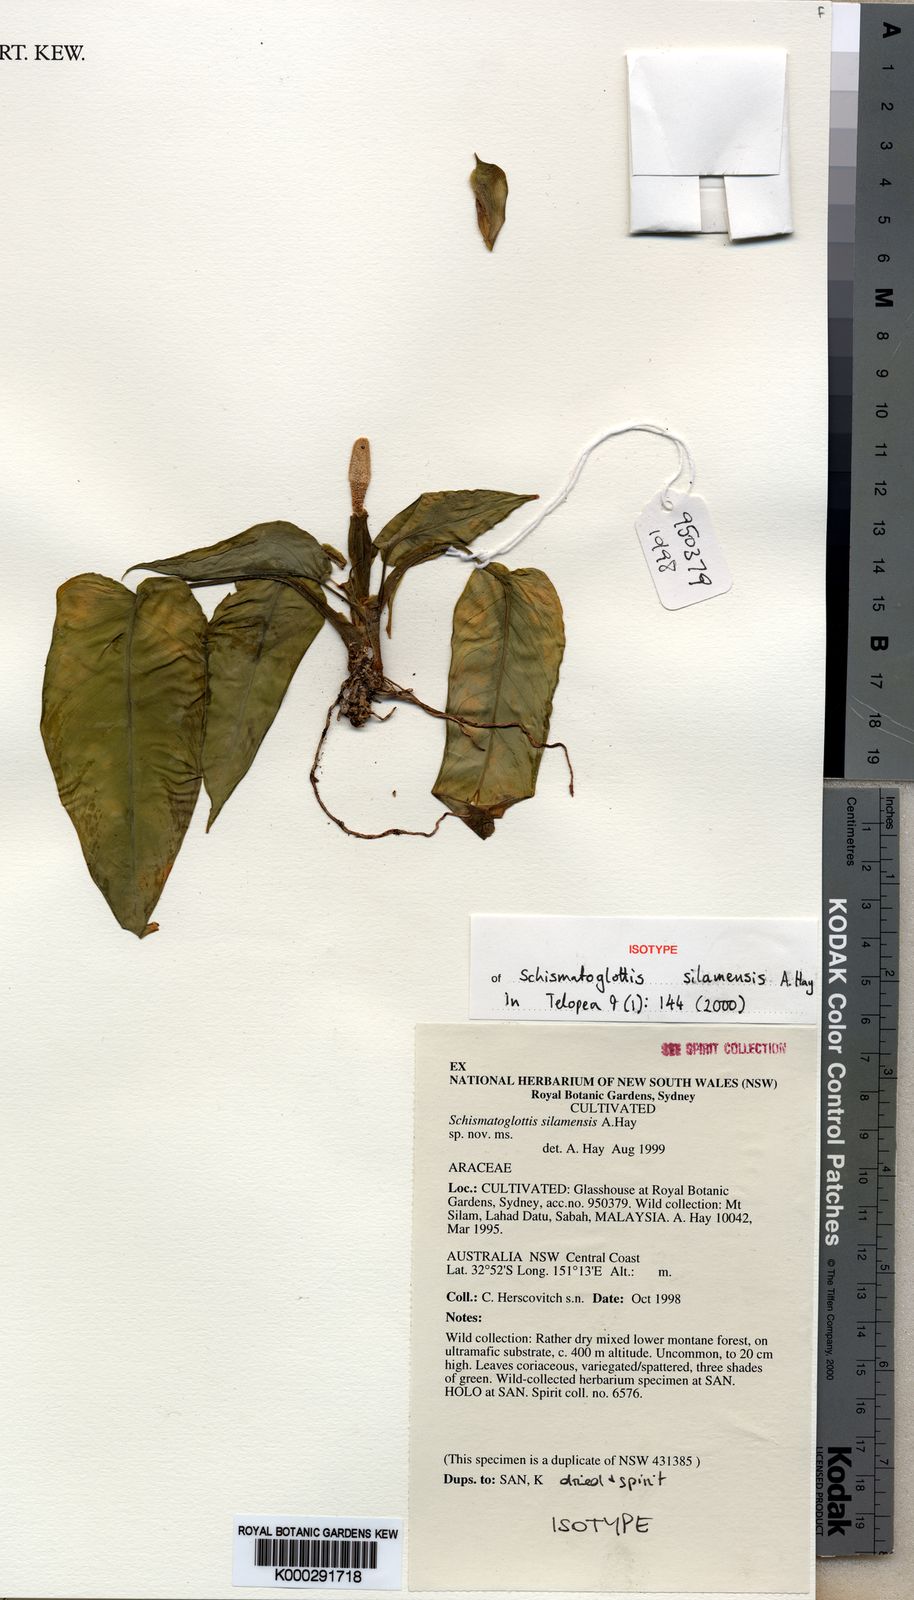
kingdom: Plantae
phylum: Tracheophyta
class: Liliopsida
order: Alismatales
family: Araceae
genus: Schismatoglottis
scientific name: Schismatoglottis silamensis
